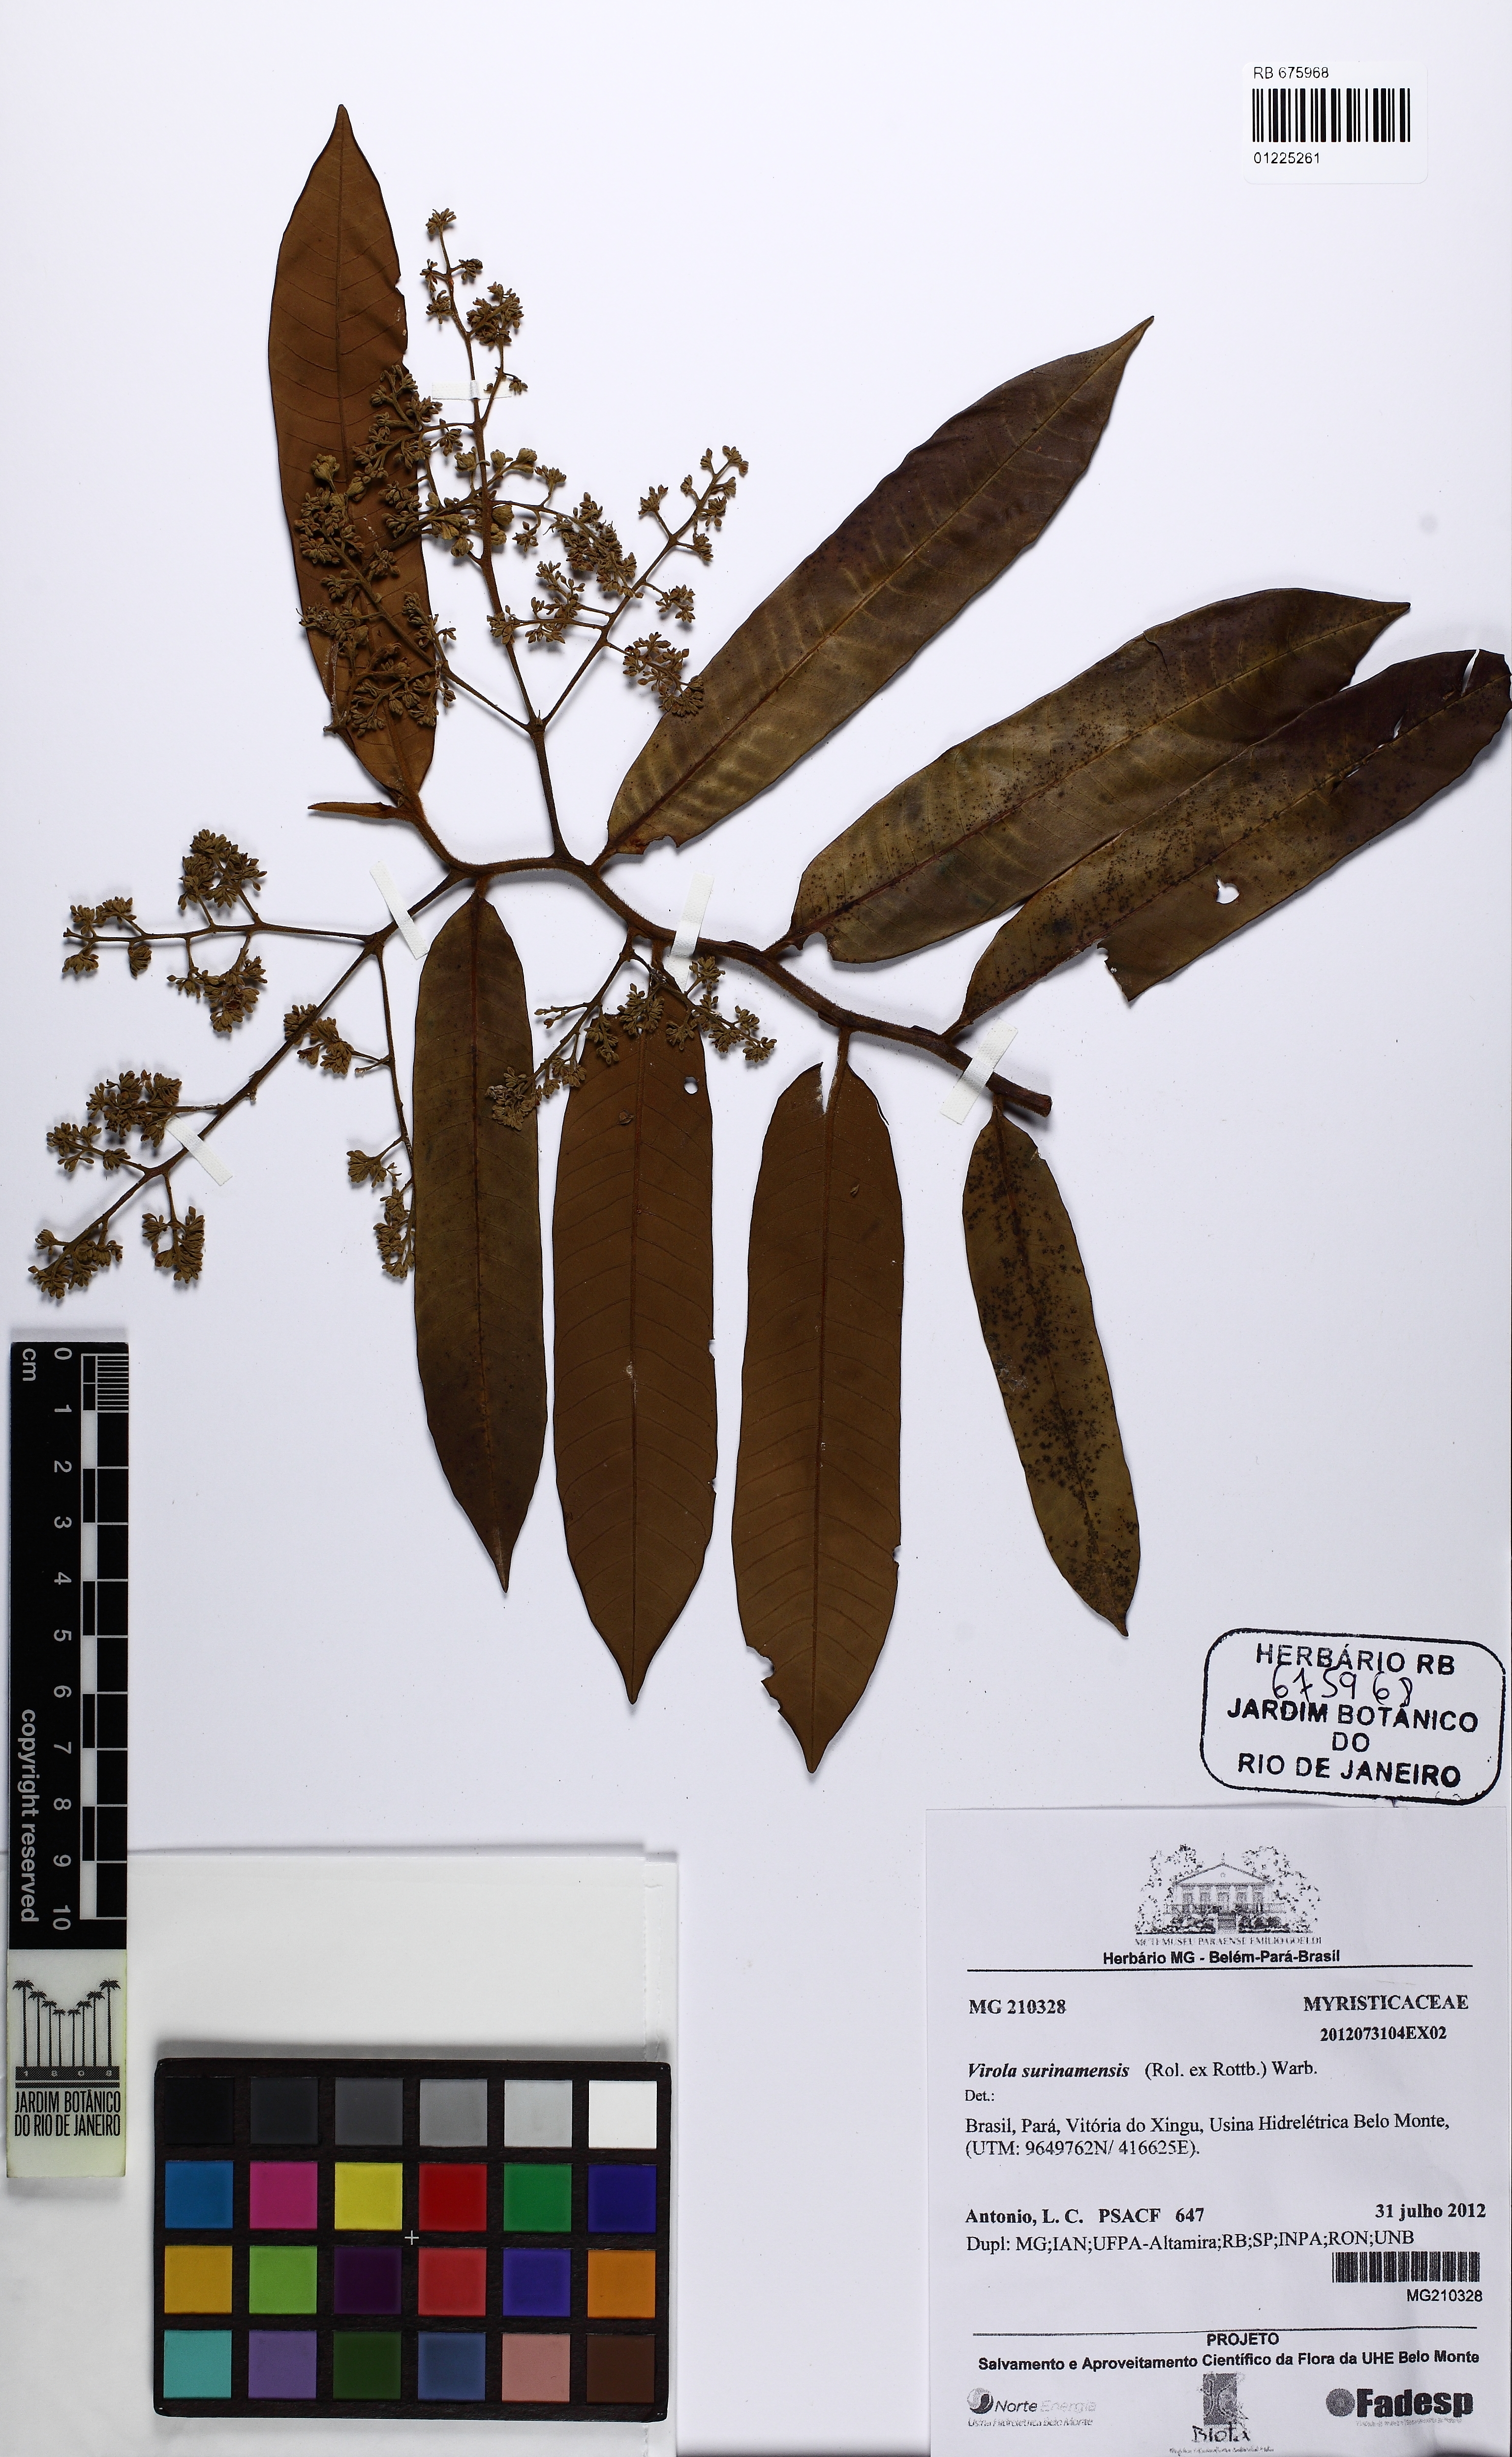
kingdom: Plantae
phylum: Tracheophyta
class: Magnoliopsida
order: Magnoliales
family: Myristicaceae
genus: Virola
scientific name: Virola surinamensis
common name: Baboonwood
